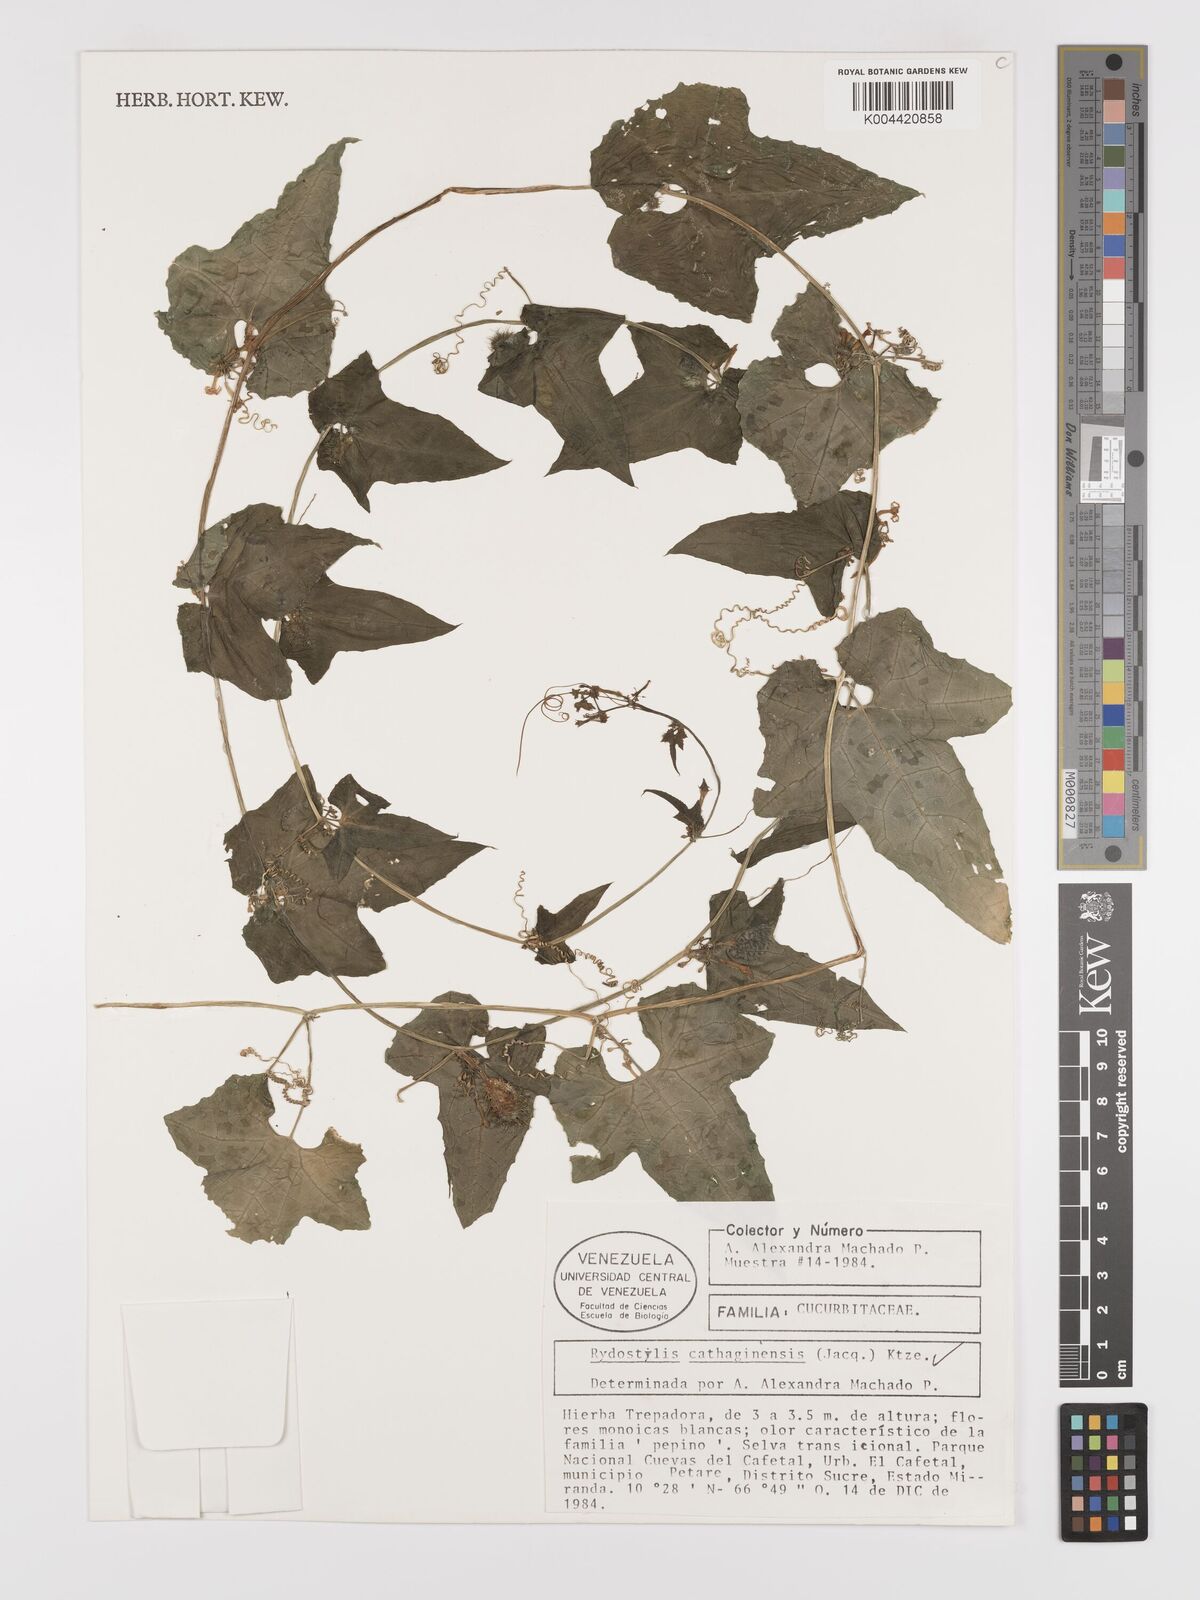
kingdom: Plantae
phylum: Tracheophyta
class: Magnoliopsida
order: Cucurbitales
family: Cucurbitaceae
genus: Cyclanthera
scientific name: Cyclanthera carthagenensis
